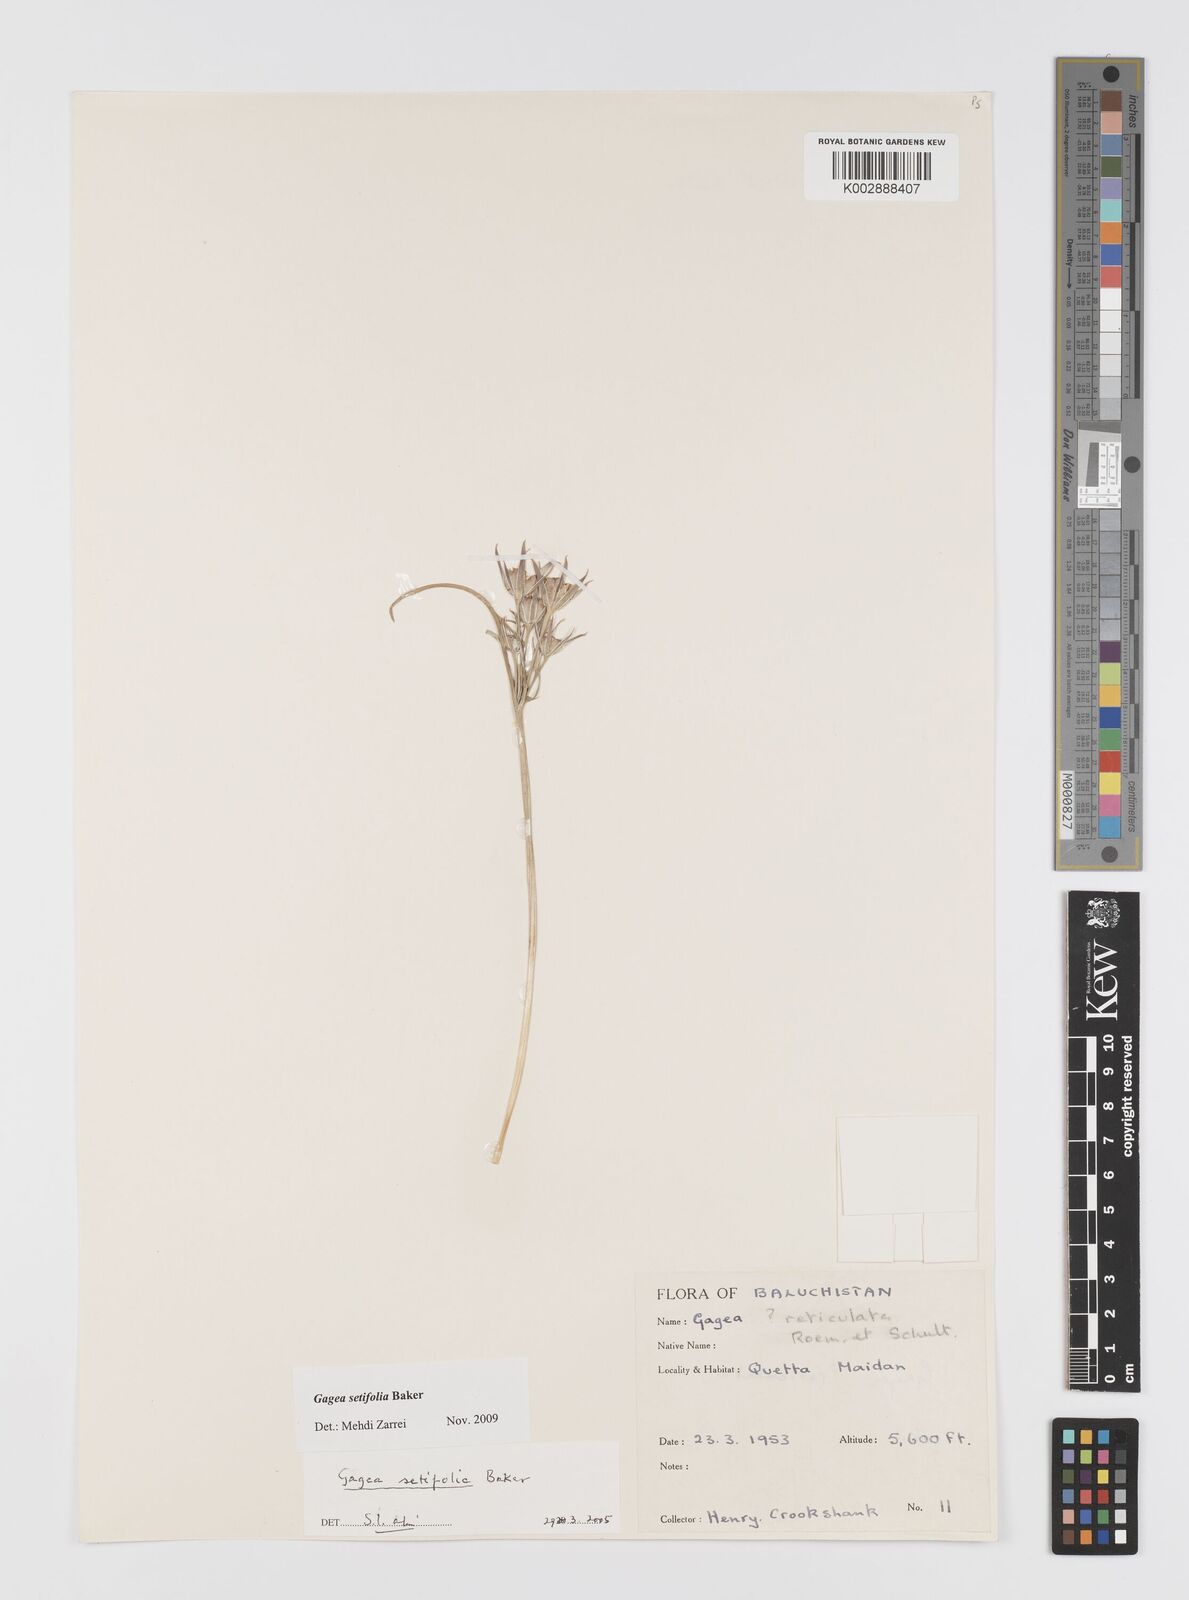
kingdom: Plantae
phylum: Tracheophyta
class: Liliopsida
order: Liliales
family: Liliaceae
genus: Gagea
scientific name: Gagea reticulata
